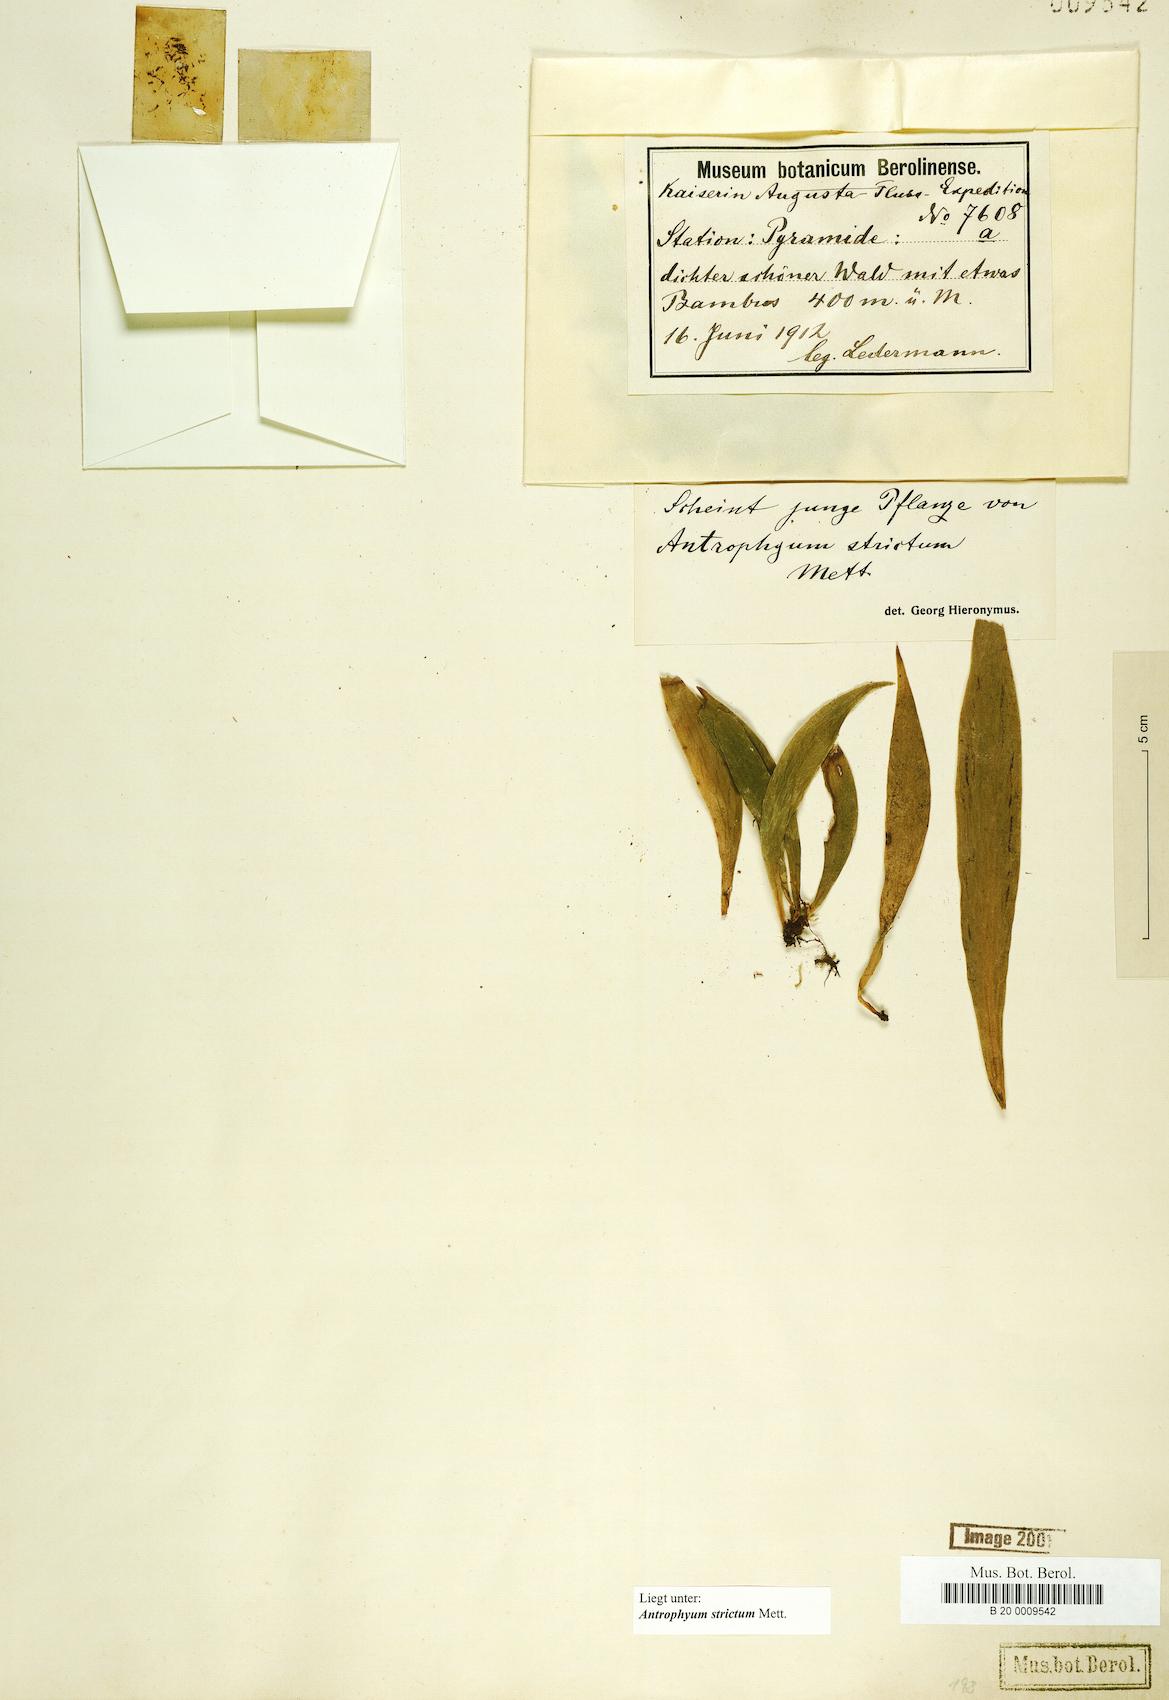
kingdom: Plantae
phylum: Tracheophyta
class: Polypodiopsida
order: Polypodiales
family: Pteridaceae
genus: Antrophyum
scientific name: Antrophyum strictum
